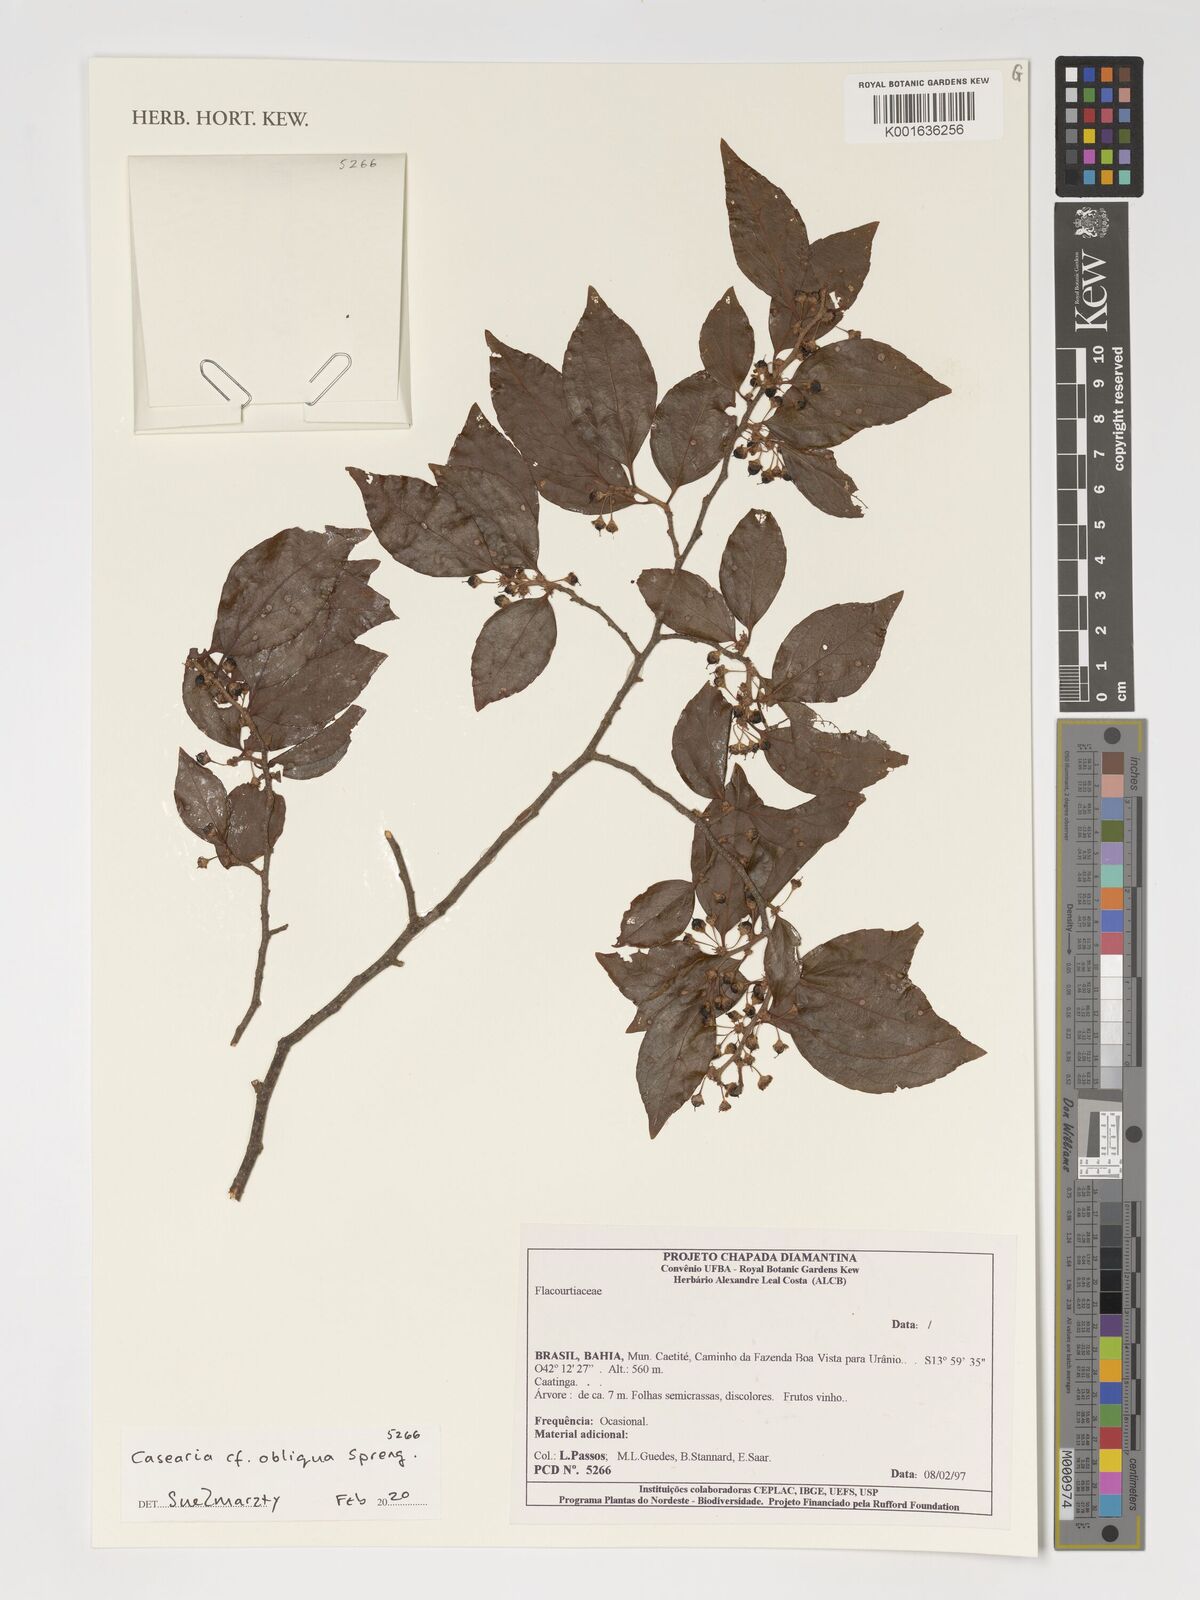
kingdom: Plantae
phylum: Tracheophyta
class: Magnoliopsida
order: Malpighiales
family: Salicaceae
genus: Casearia
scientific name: Casearia obliqua
